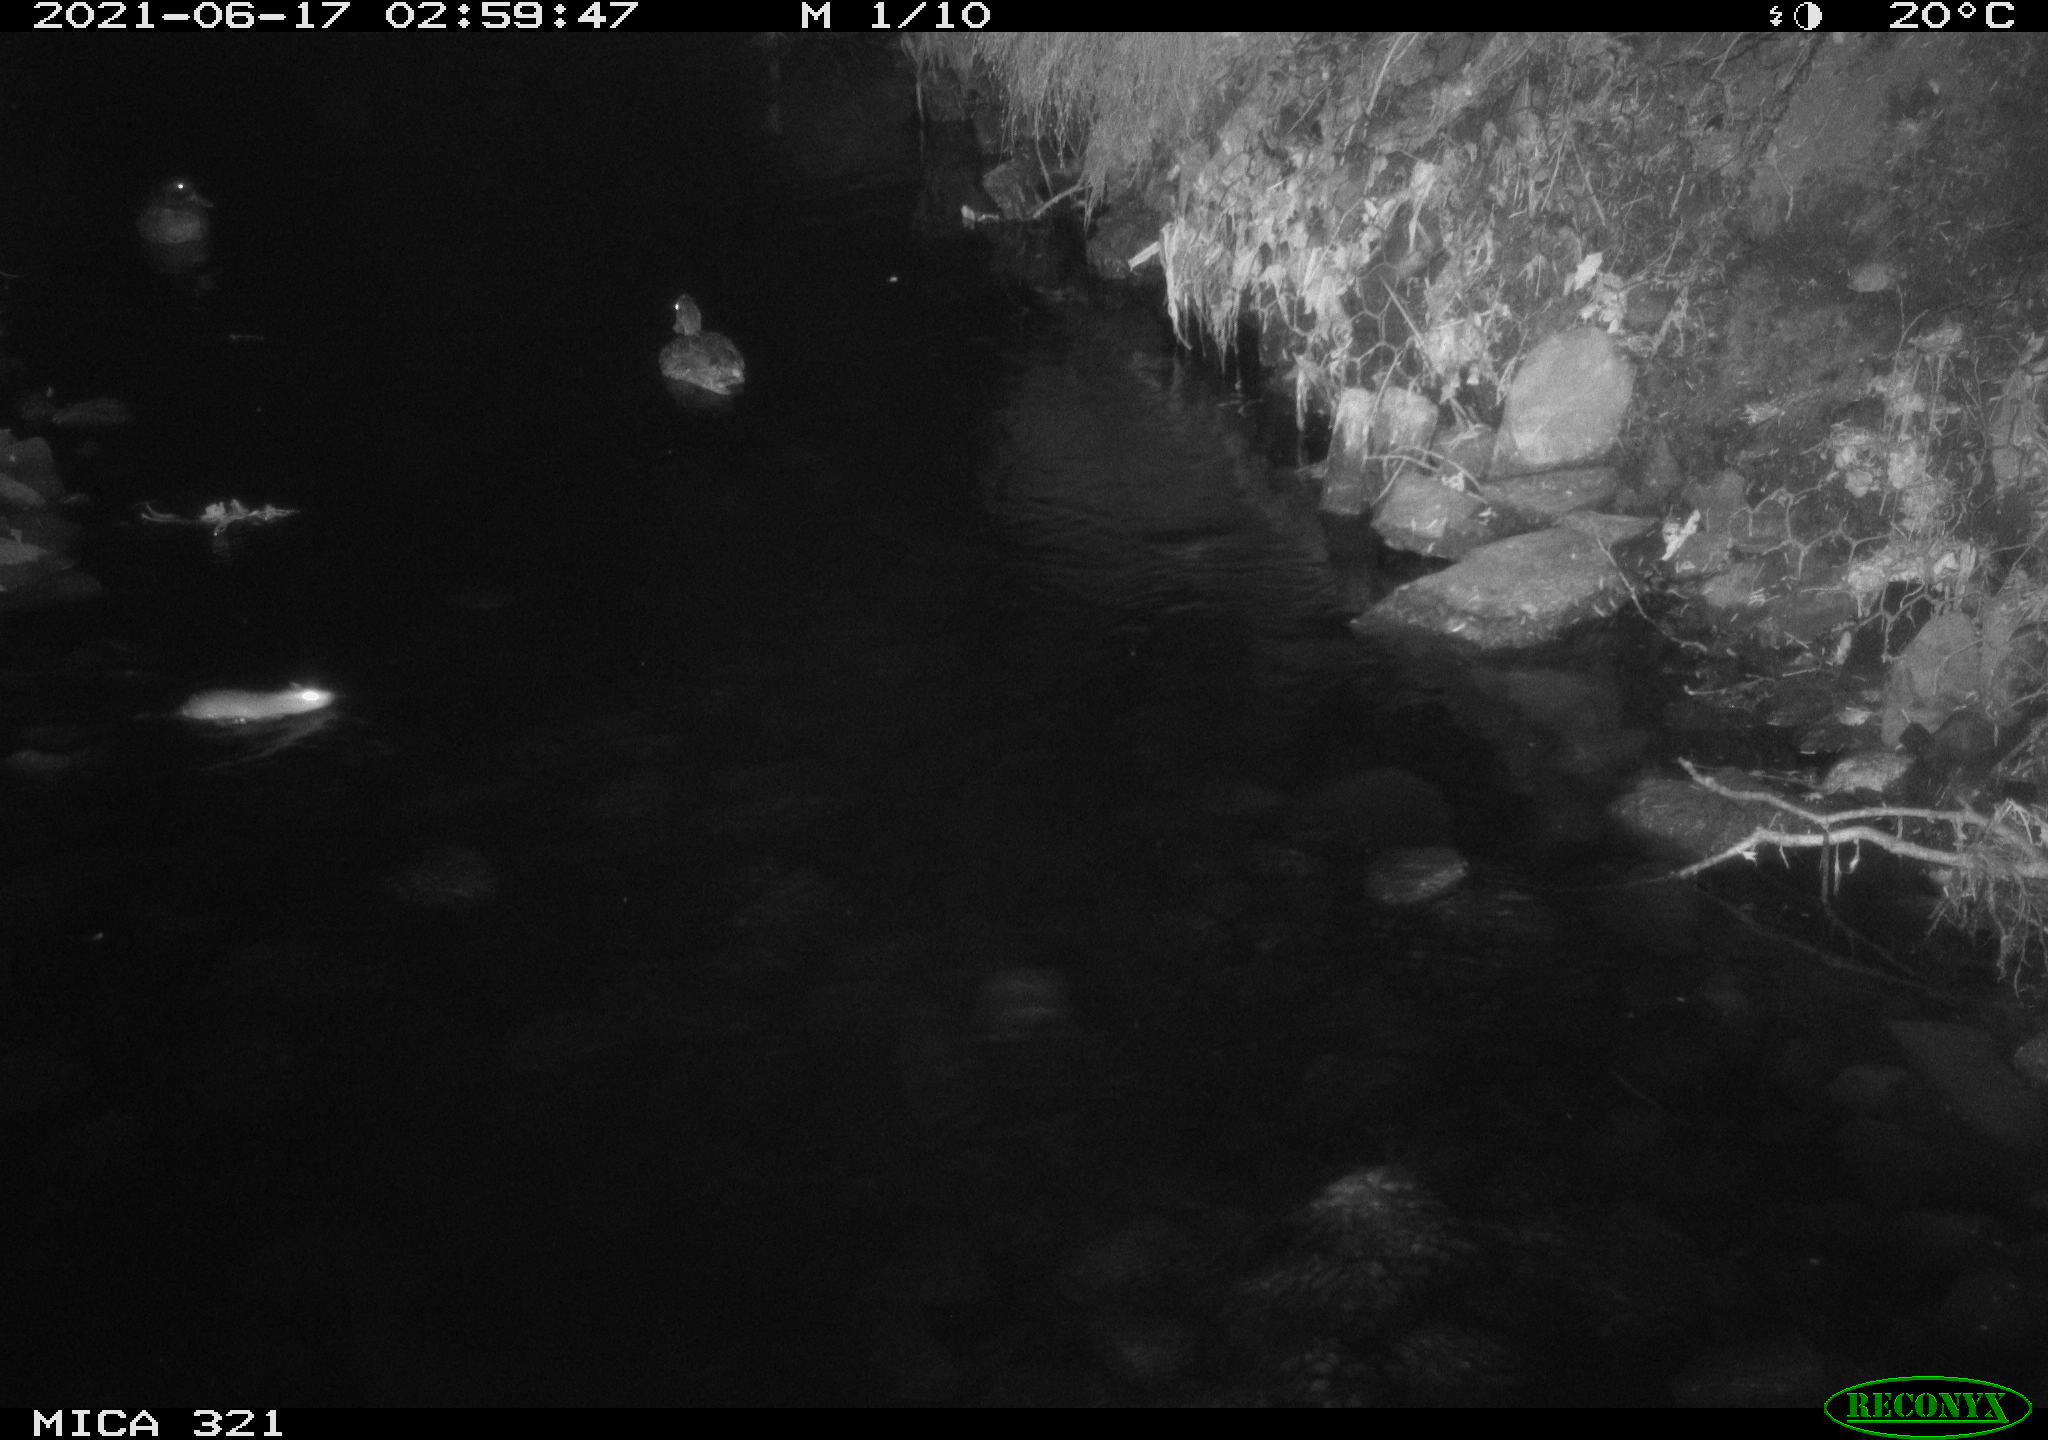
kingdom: Animalia
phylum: Chordata
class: Aves
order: Anseriformes
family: Anatidae
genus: Anas
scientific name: Anas platyrhynchos
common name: Mallard
